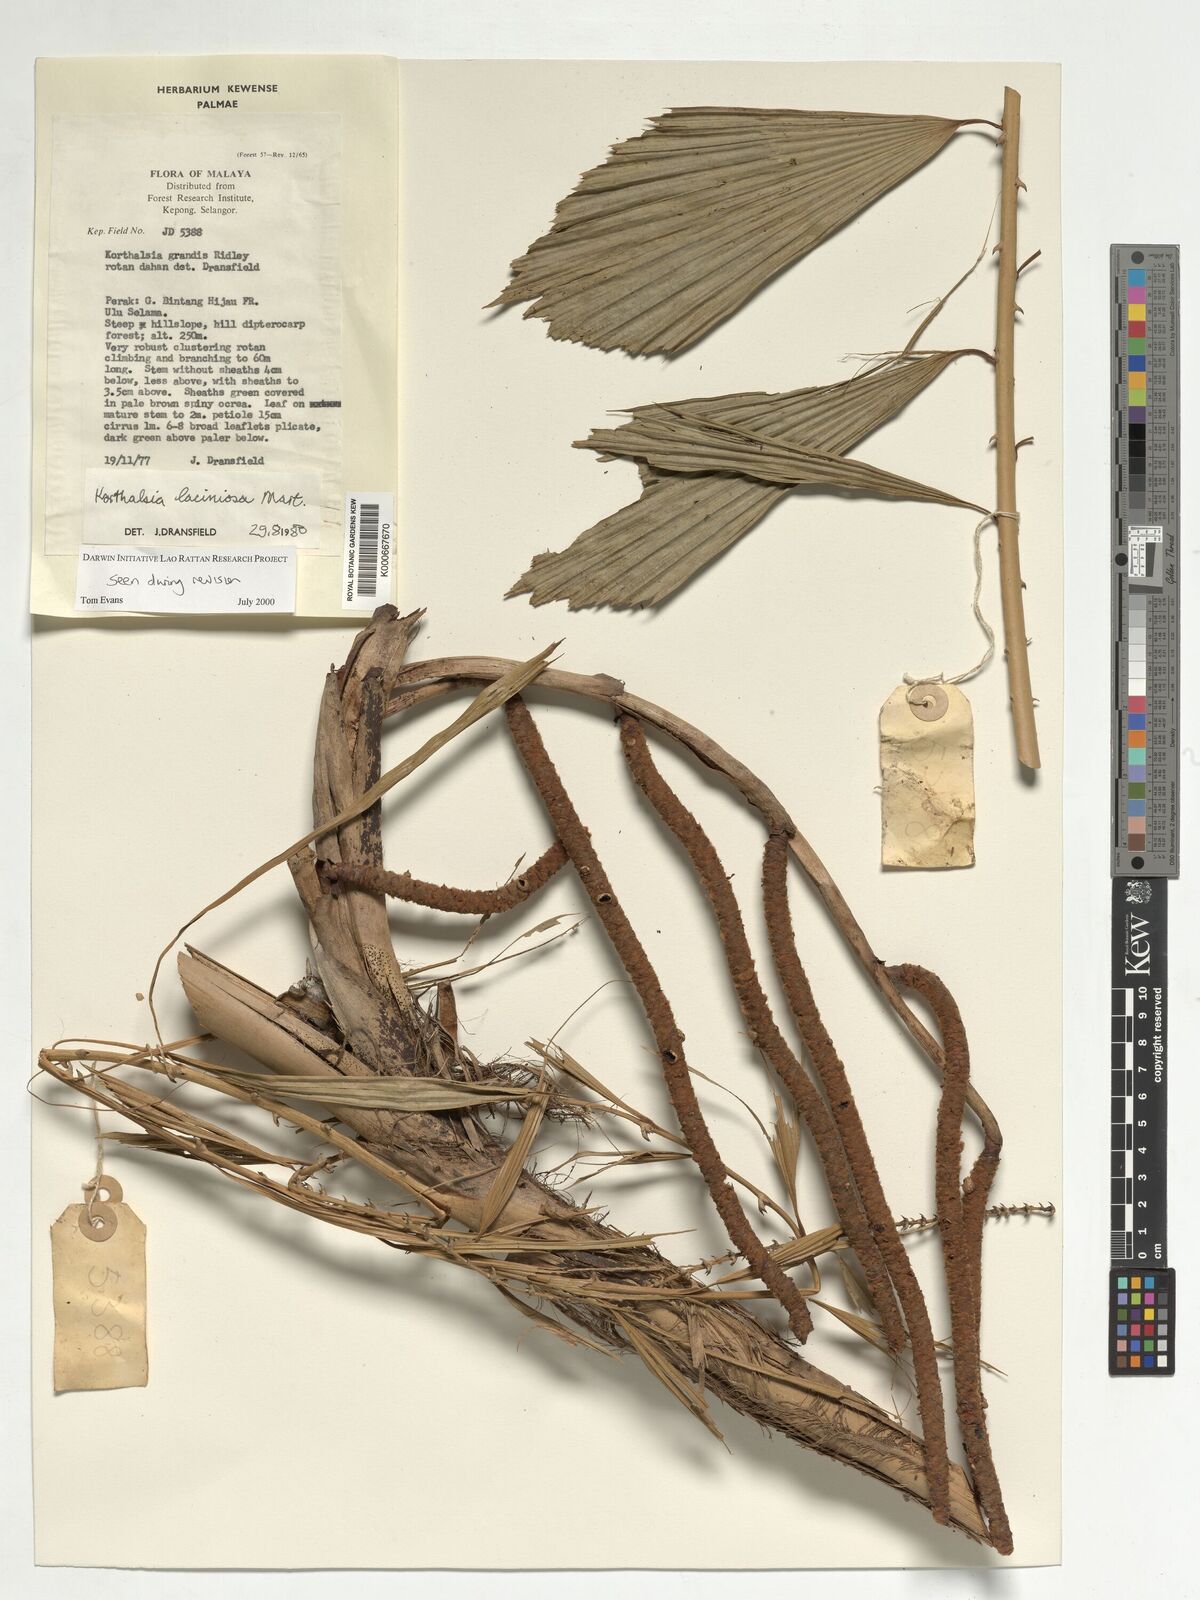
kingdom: Plantae
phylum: Tracheophyta
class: Liliopsida
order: Arecales
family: Arecaceae
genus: Korthalsia
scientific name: Korthalsia laciniosa
